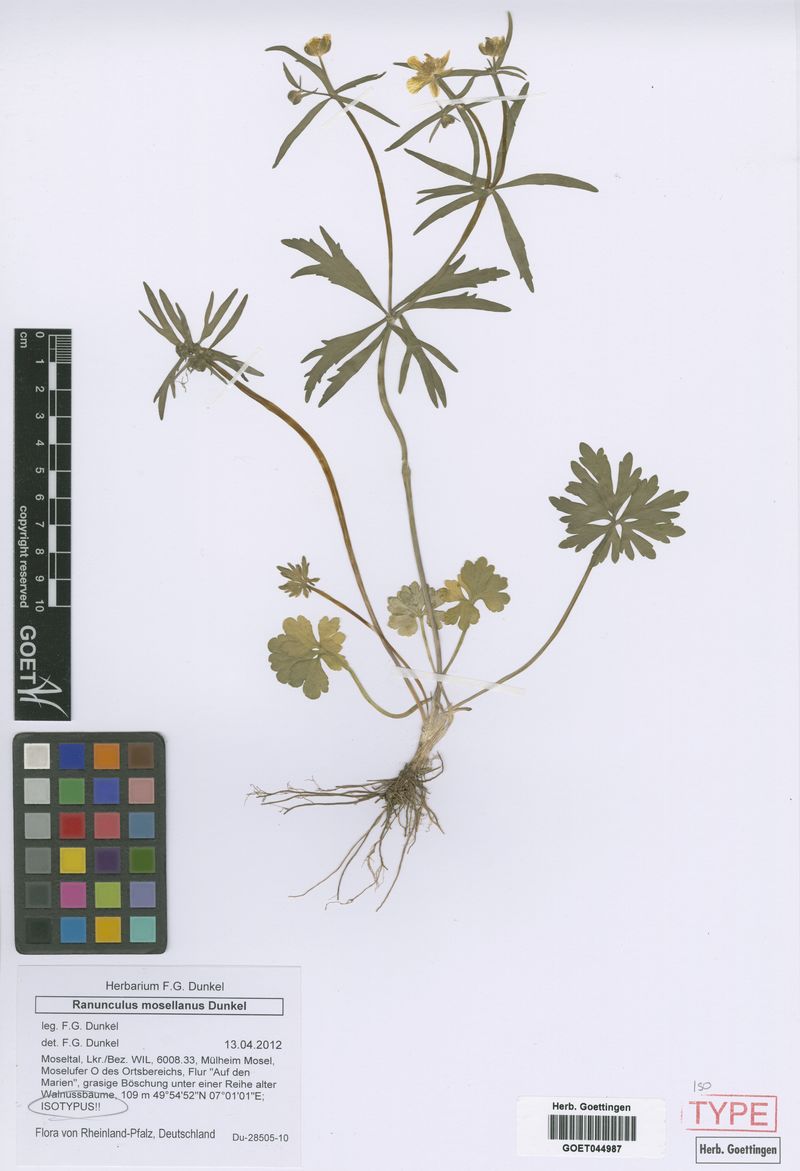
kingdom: Plantae
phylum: Tracheophyta
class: Magnoliopsida
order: Ranunculales
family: Ranunculaceae
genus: Ranunculus
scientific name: Ranunculus mosellanus
